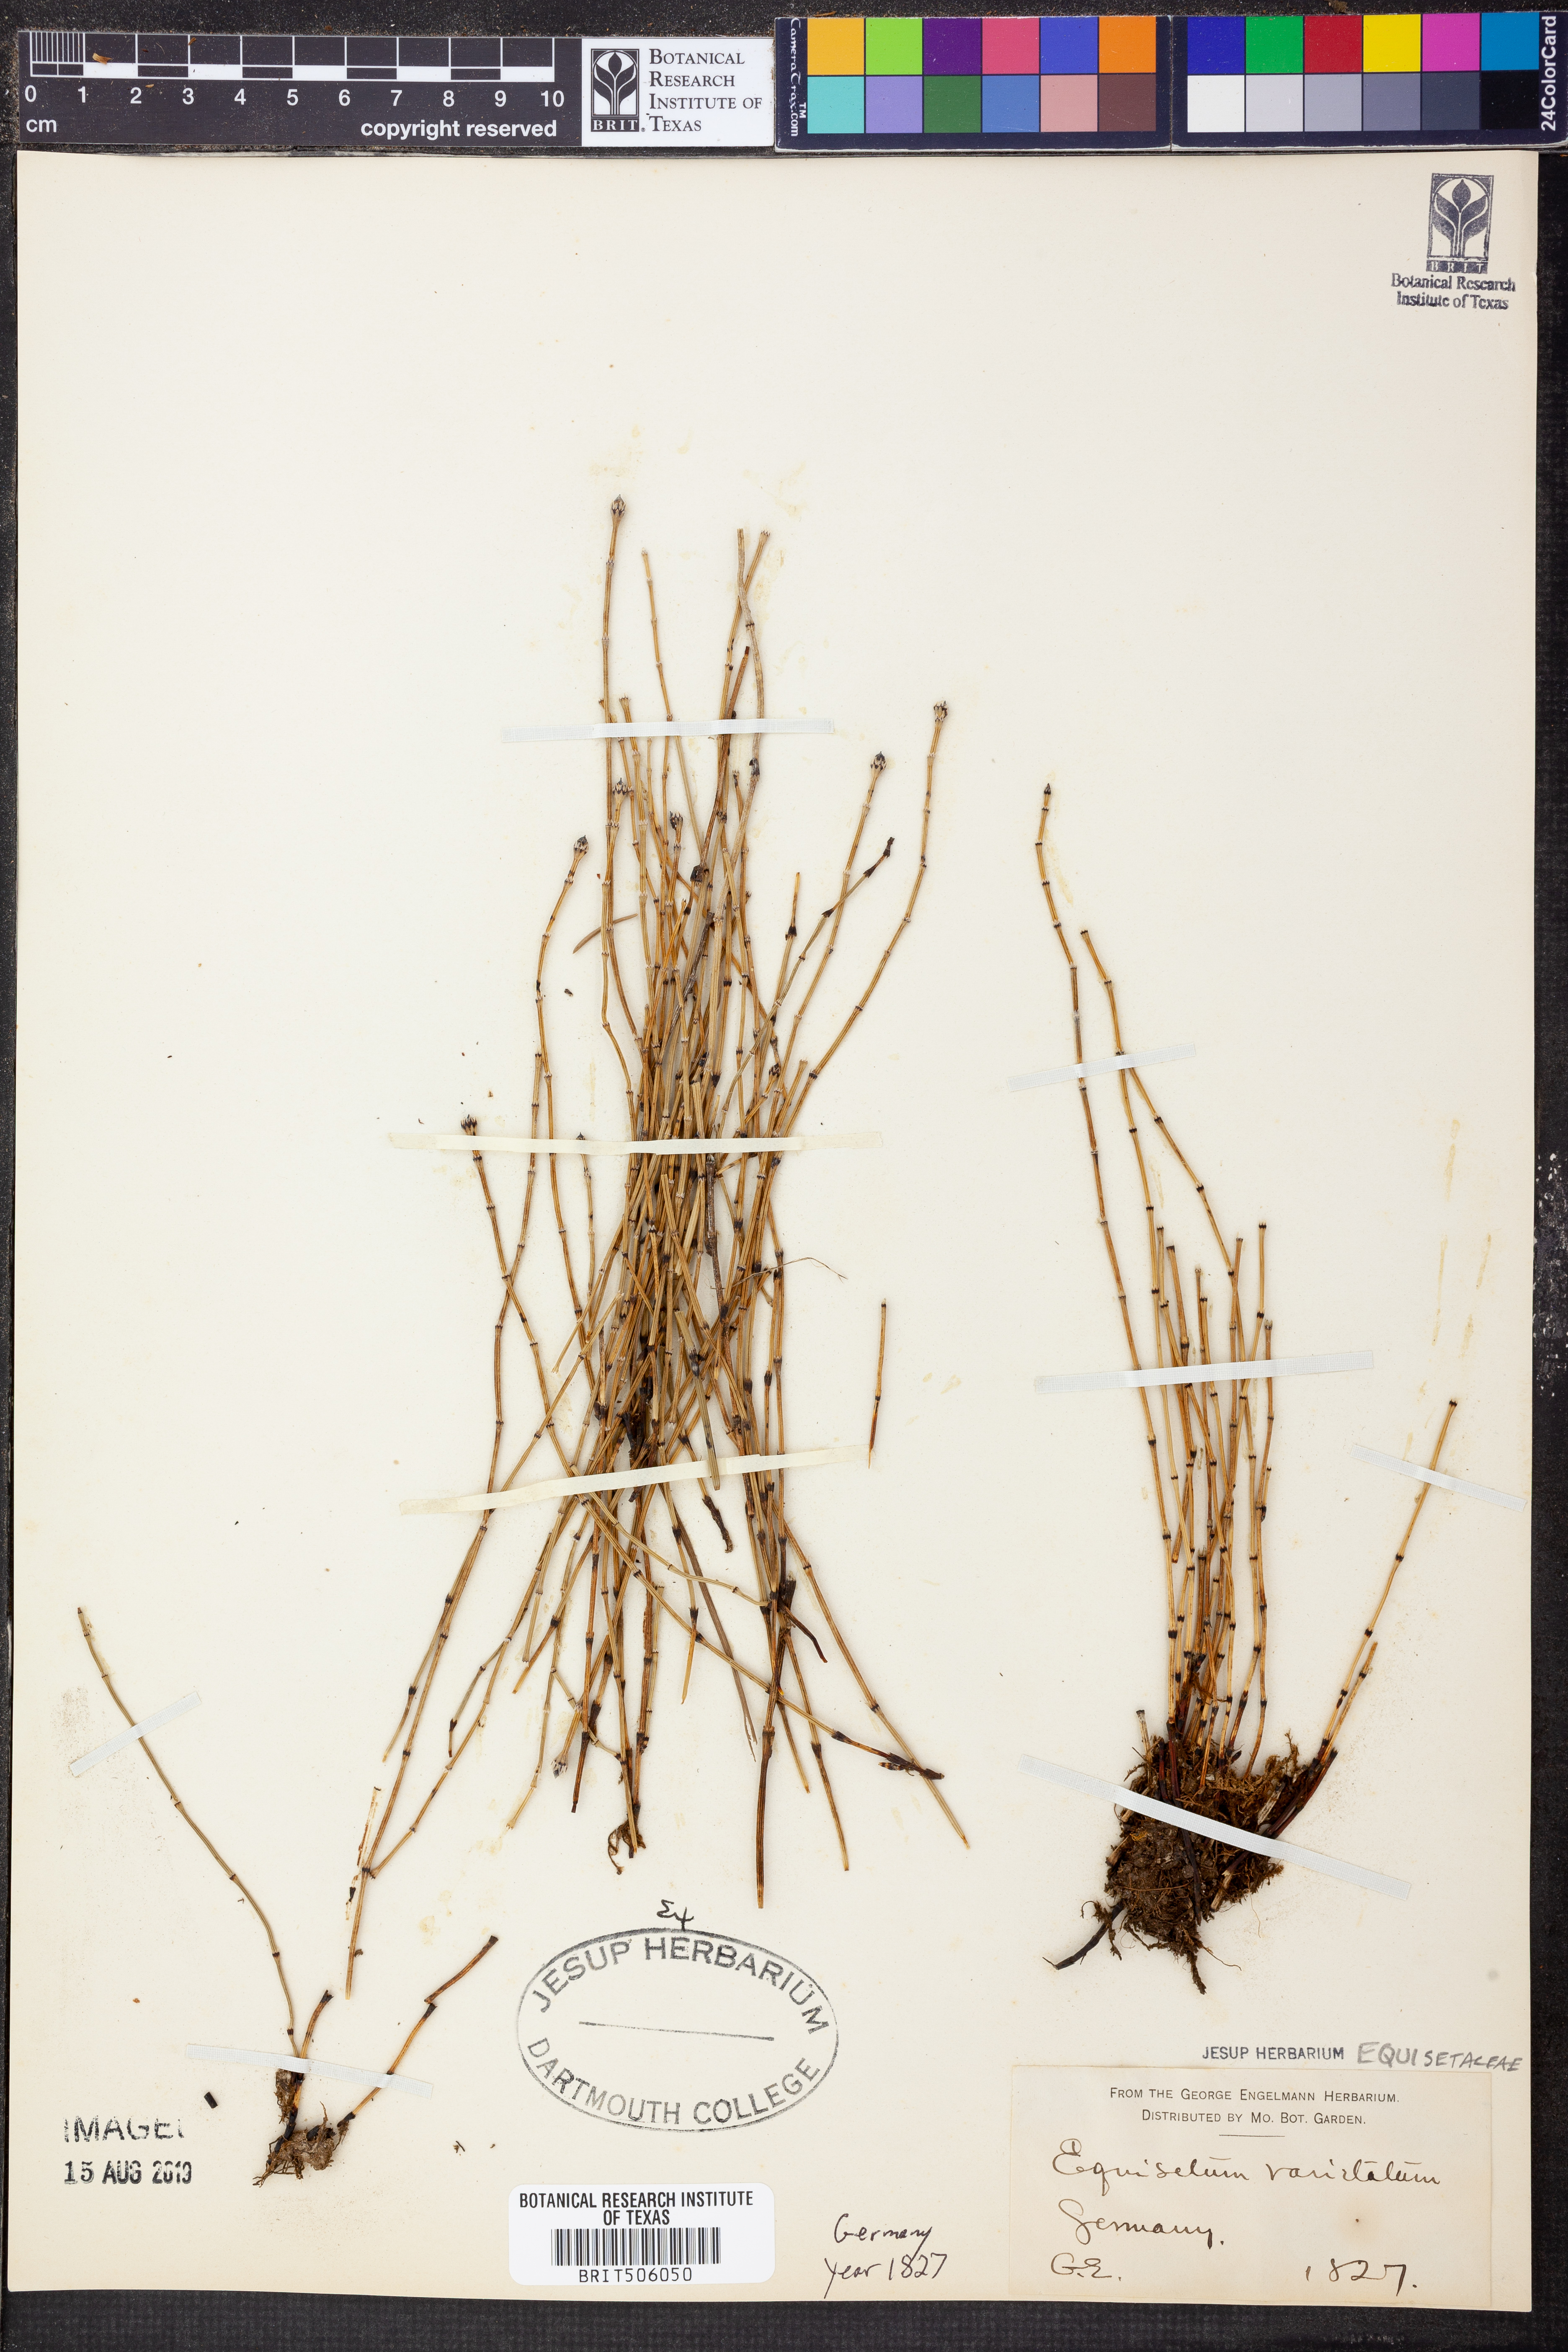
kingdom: Plantae
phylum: Tracheophyta
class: Polypodiopsida
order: Equisetales
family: Equisetaceae
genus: Equisetum
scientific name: Equisetum variegatum
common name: Variegated horsetail
